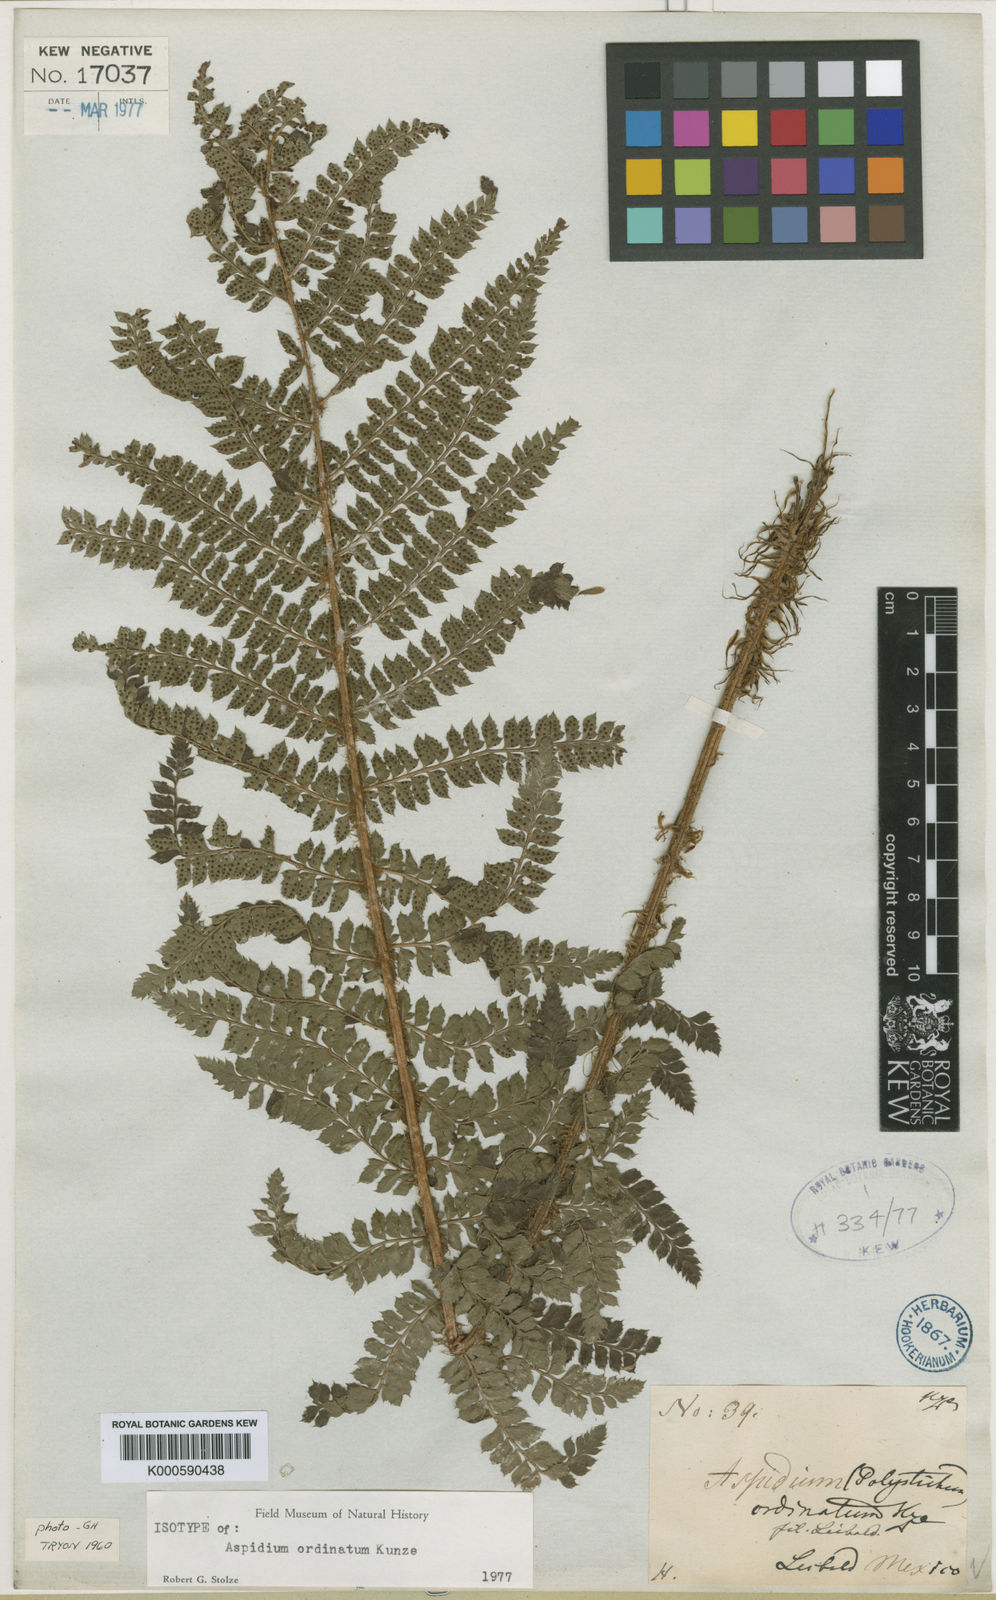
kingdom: Plantae
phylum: Tracheophyta
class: Polypodiopsida
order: Polypodiales
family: Dryopteridaceae
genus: Polystichum
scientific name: Polystichum
